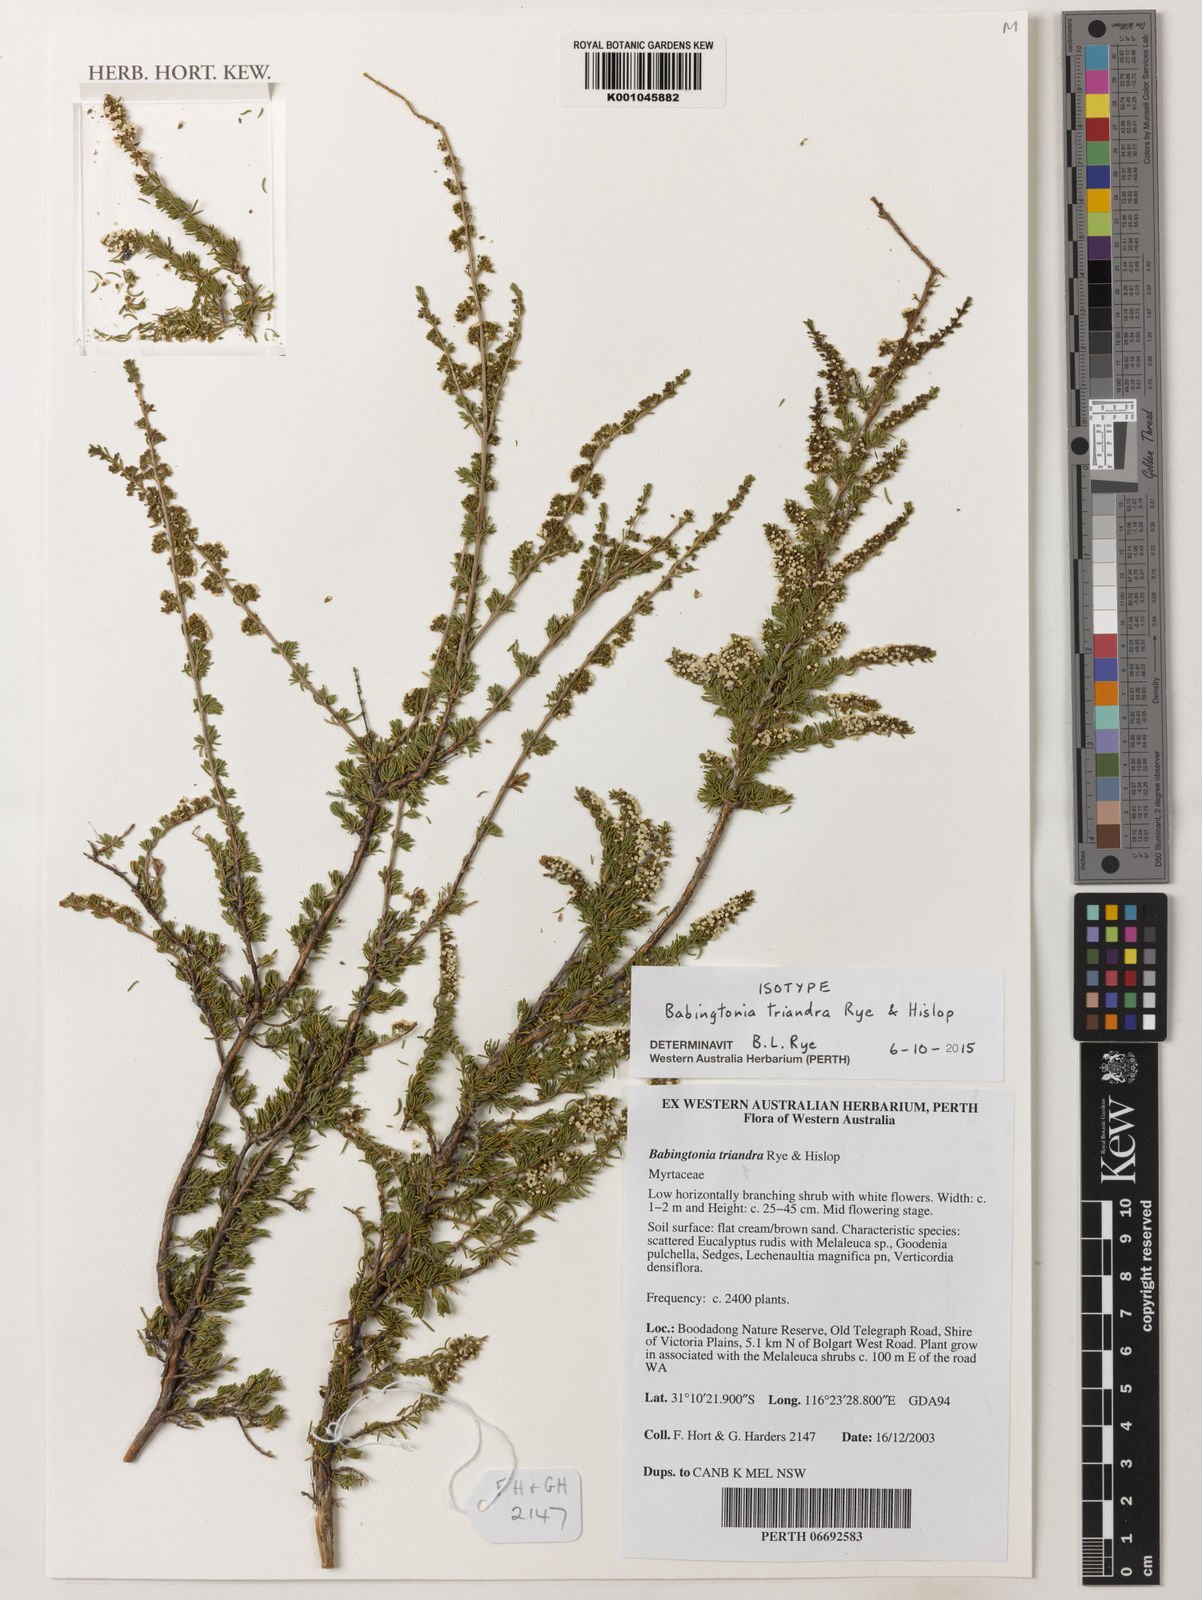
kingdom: Plantae
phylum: Tracheophyta
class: Magnoliopsida
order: Myrtales
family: Myrtaceae
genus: Babingtonia
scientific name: Babingtonia
